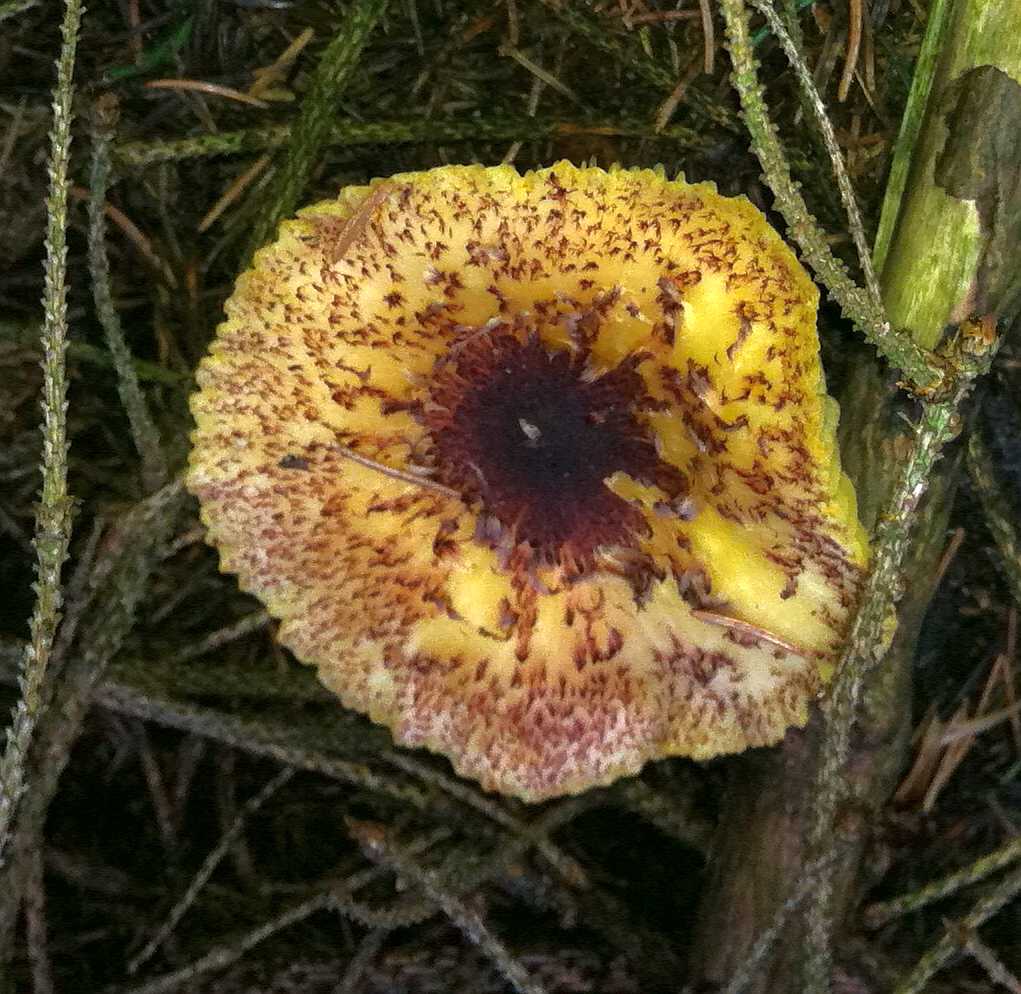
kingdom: Fungi
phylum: Basidiomycota
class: Agaricomycetes
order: Agaricales
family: Tricholomataceae
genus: Tricholomopsis
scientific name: Tricholomopsis rutilans
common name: purpur-væbnerhat
